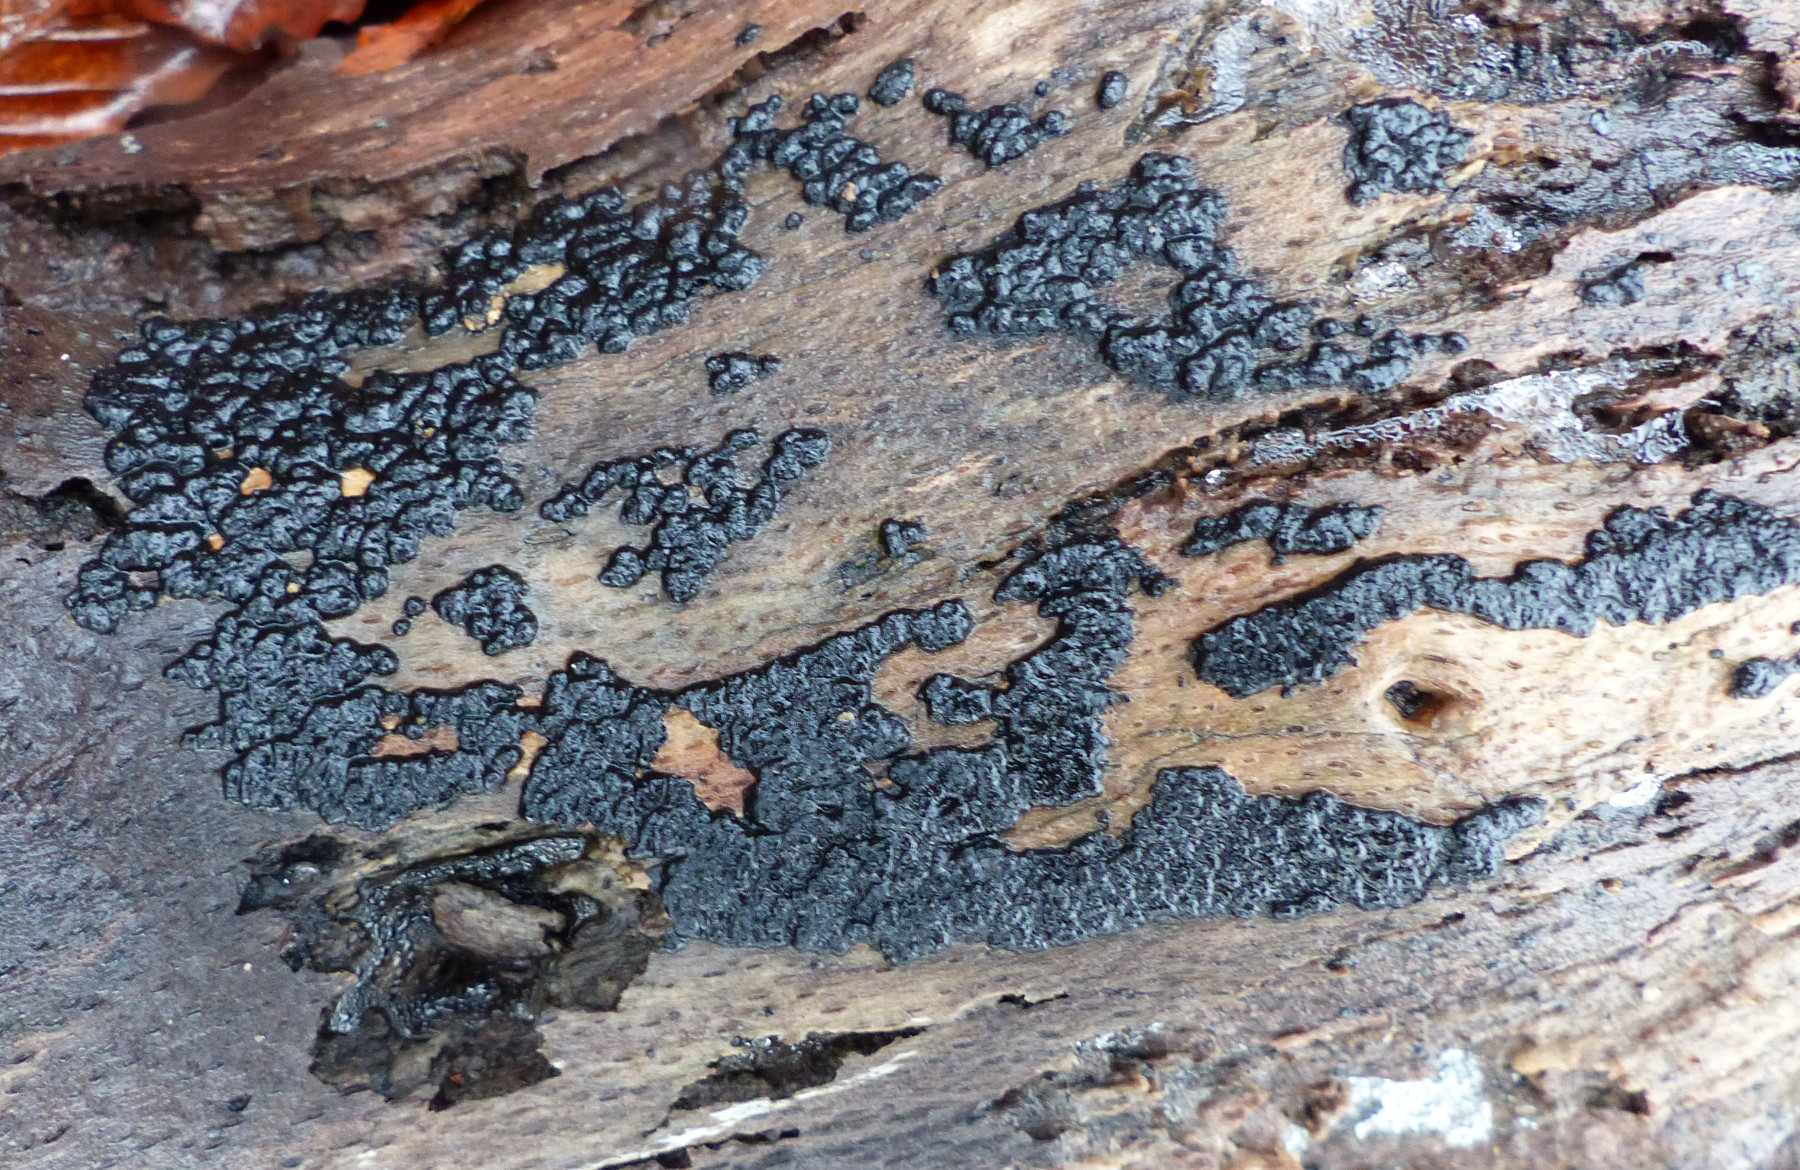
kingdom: Fungi
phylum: Ascomycota
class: Sordariomycetes
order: Xylariales
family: Xylariaceae
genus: Nemania
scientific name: Nemania serpens
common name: almindelig kuldyne
